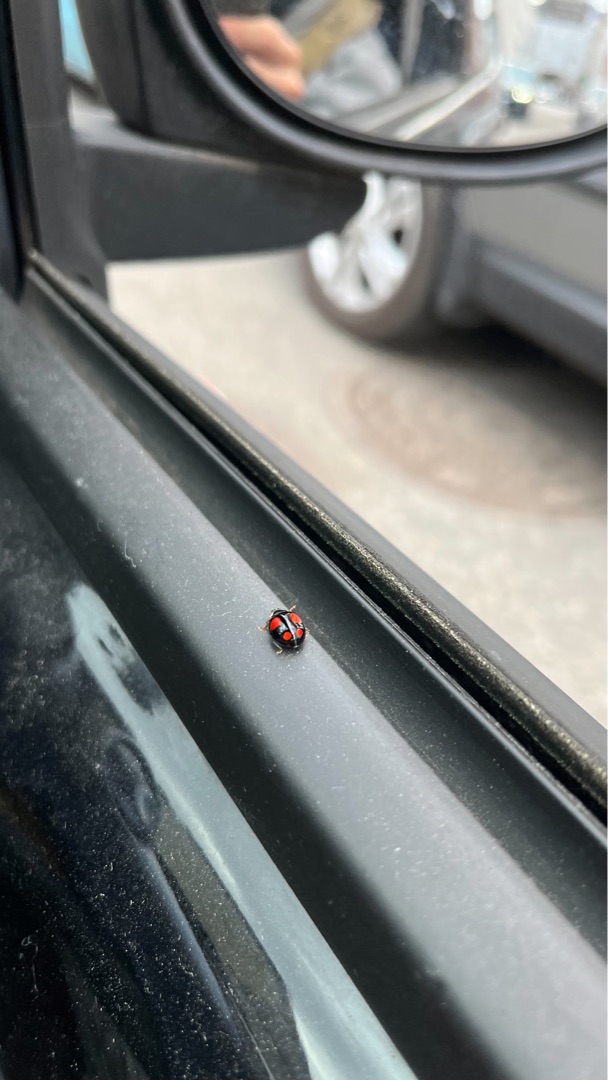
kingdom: Animalia
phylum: Arthropoda
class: Insecta
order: Coleoptera
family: Coccinellidae
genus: Harmonia
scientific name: Harmonia axyridis
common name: Harlekinmariehøne
